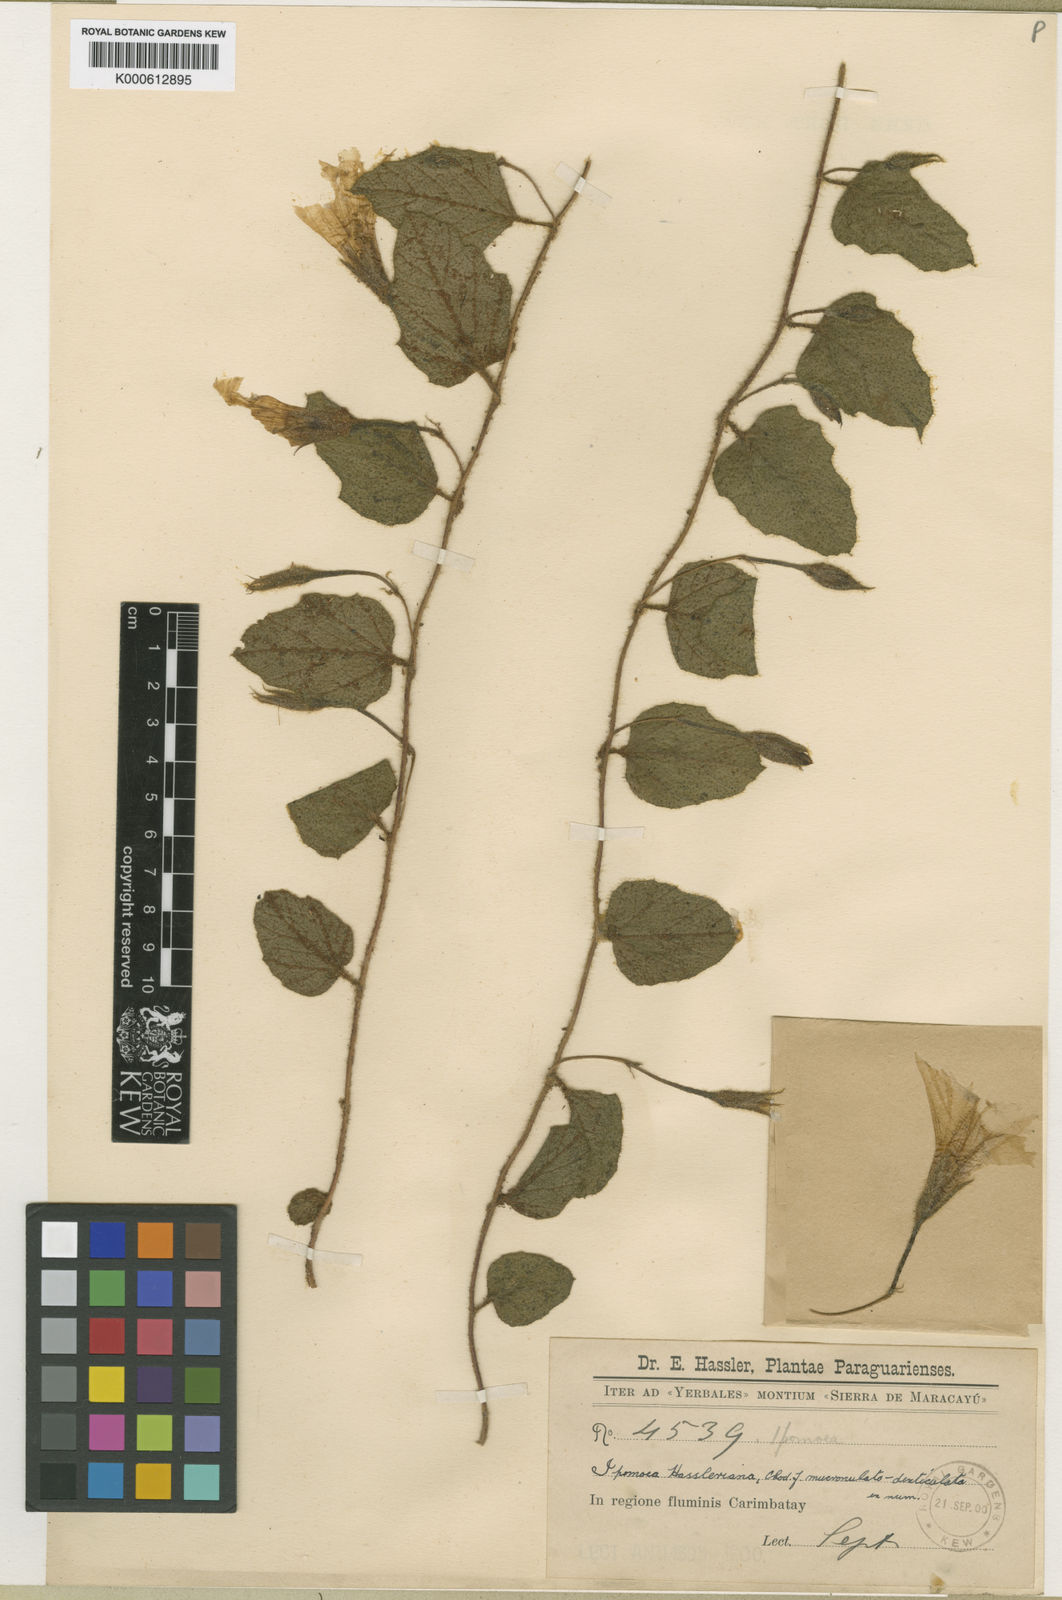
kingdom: Plantae
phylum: Tracheophyta
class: Magnoliopsida
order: Solanales
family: Convolvulaceae
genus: Distimake
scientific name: Distimake hasslerianus
